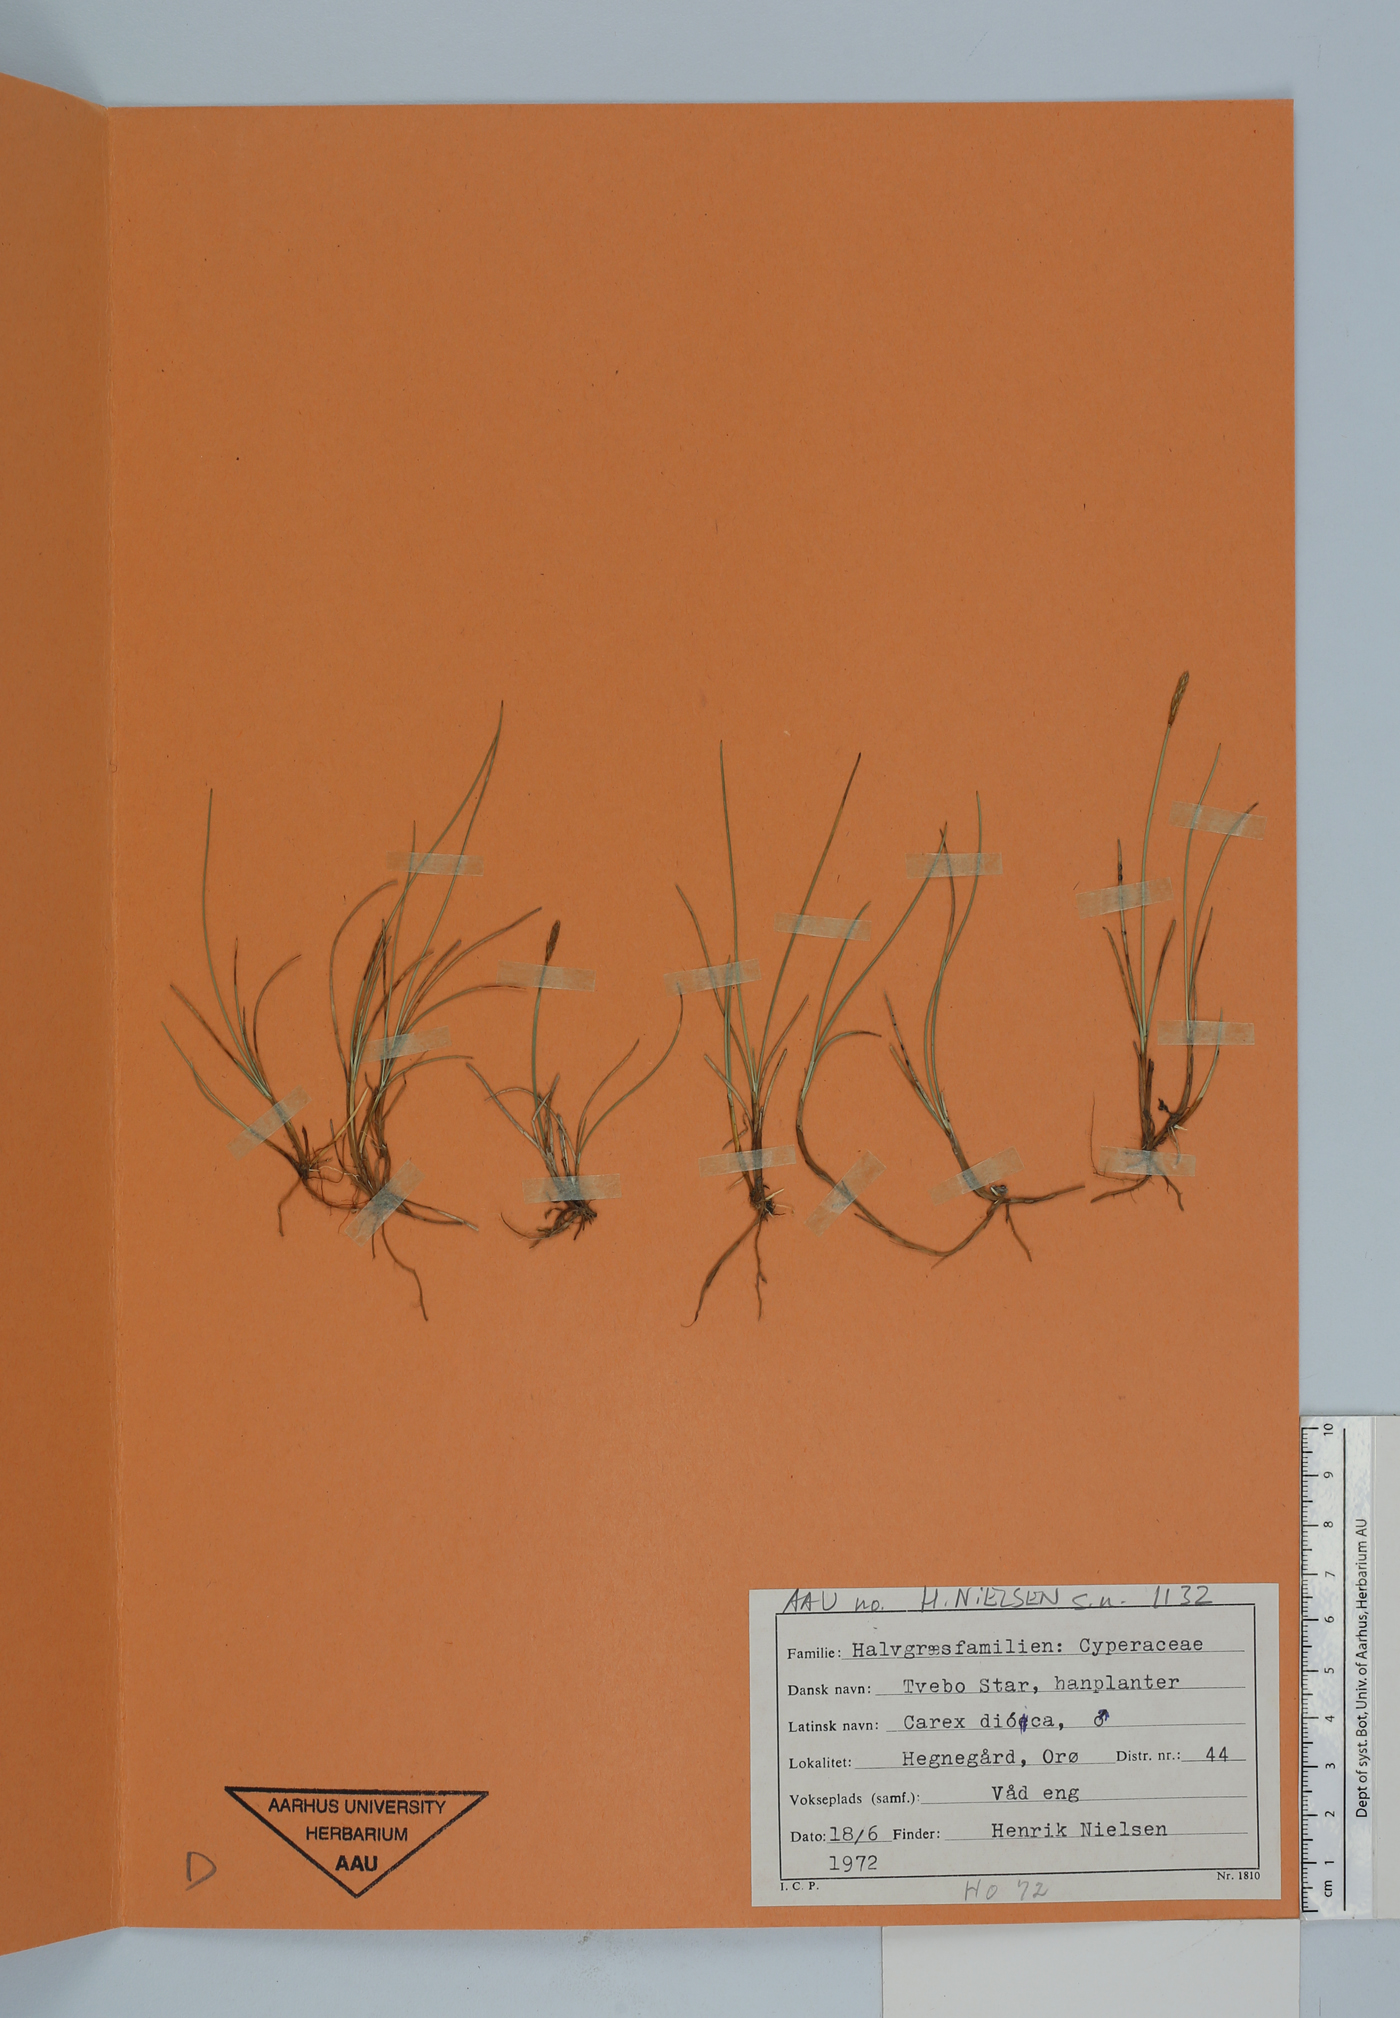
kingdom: Plantae
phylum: Tracheophyta
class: Liliopsida
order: Poales
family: Cyperaceae
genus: Carex
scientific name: Carex dioica
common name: Dioecious sedge
